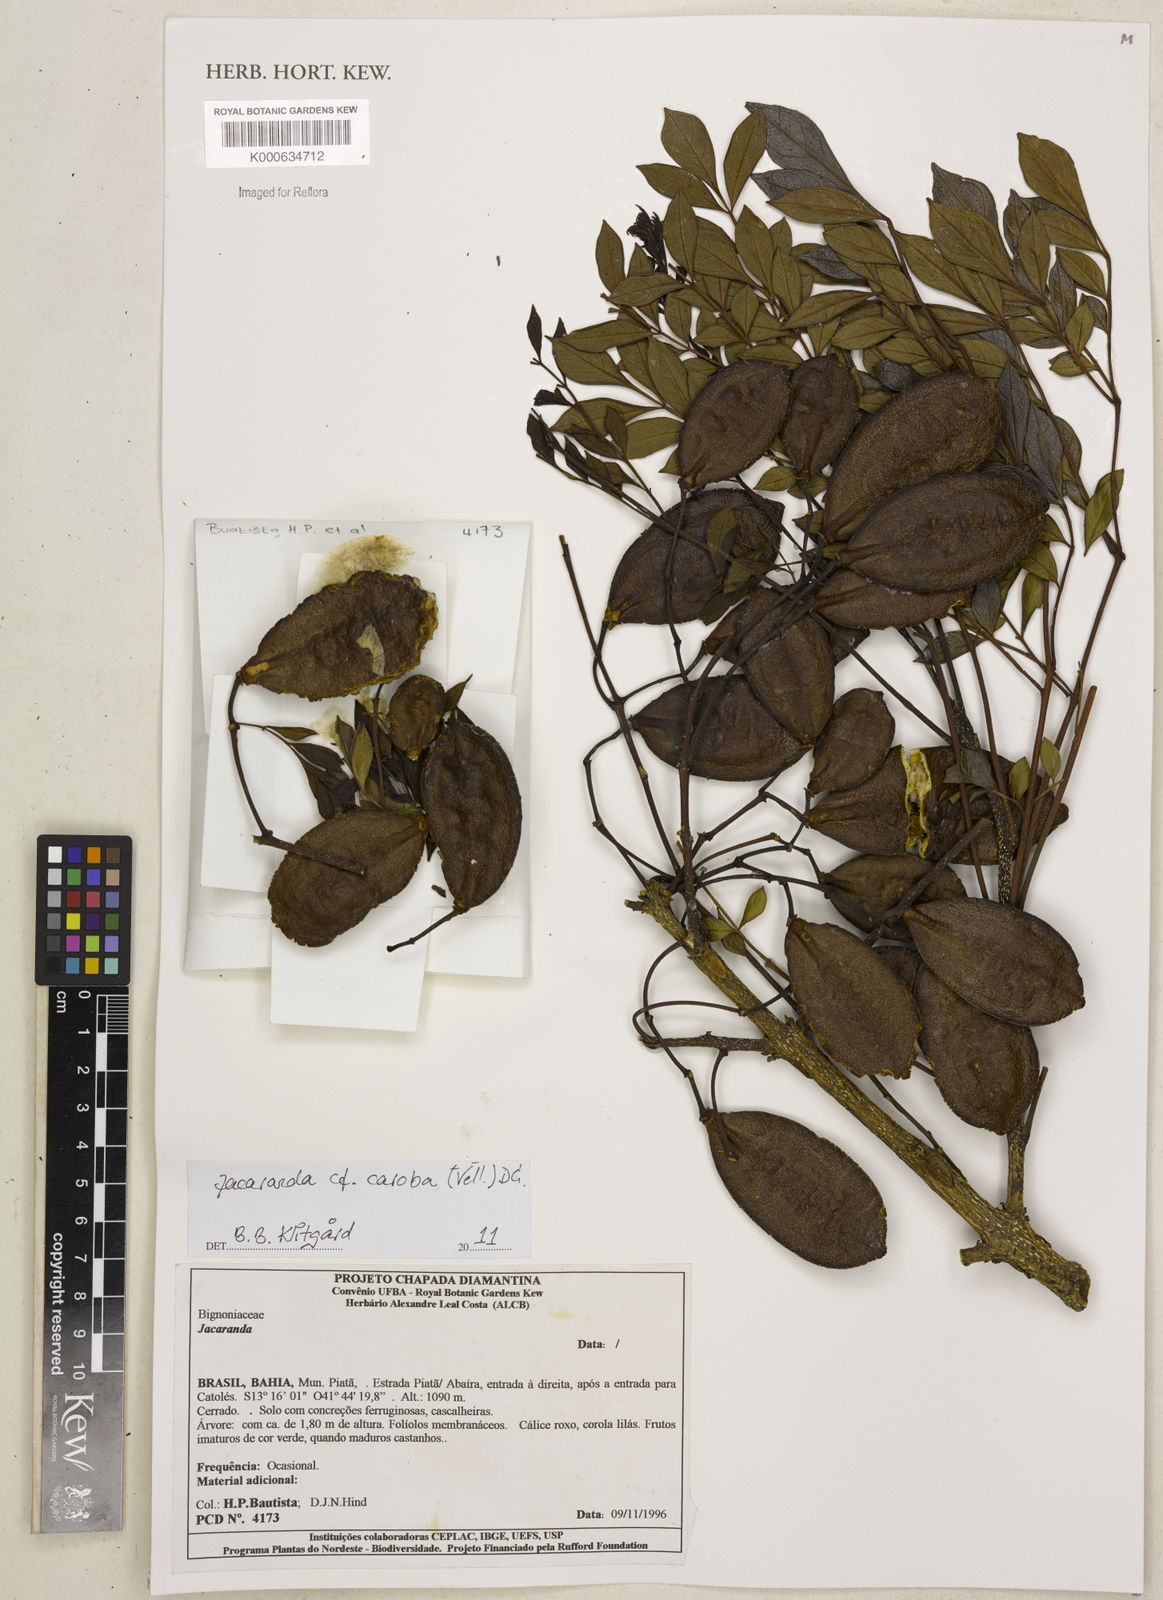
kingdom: Plantae
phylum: Tracheophyta
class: Magnoliopsida
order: Lamiales
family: Bignoniaceae
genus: Jacaranda
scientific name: Jacaranda
